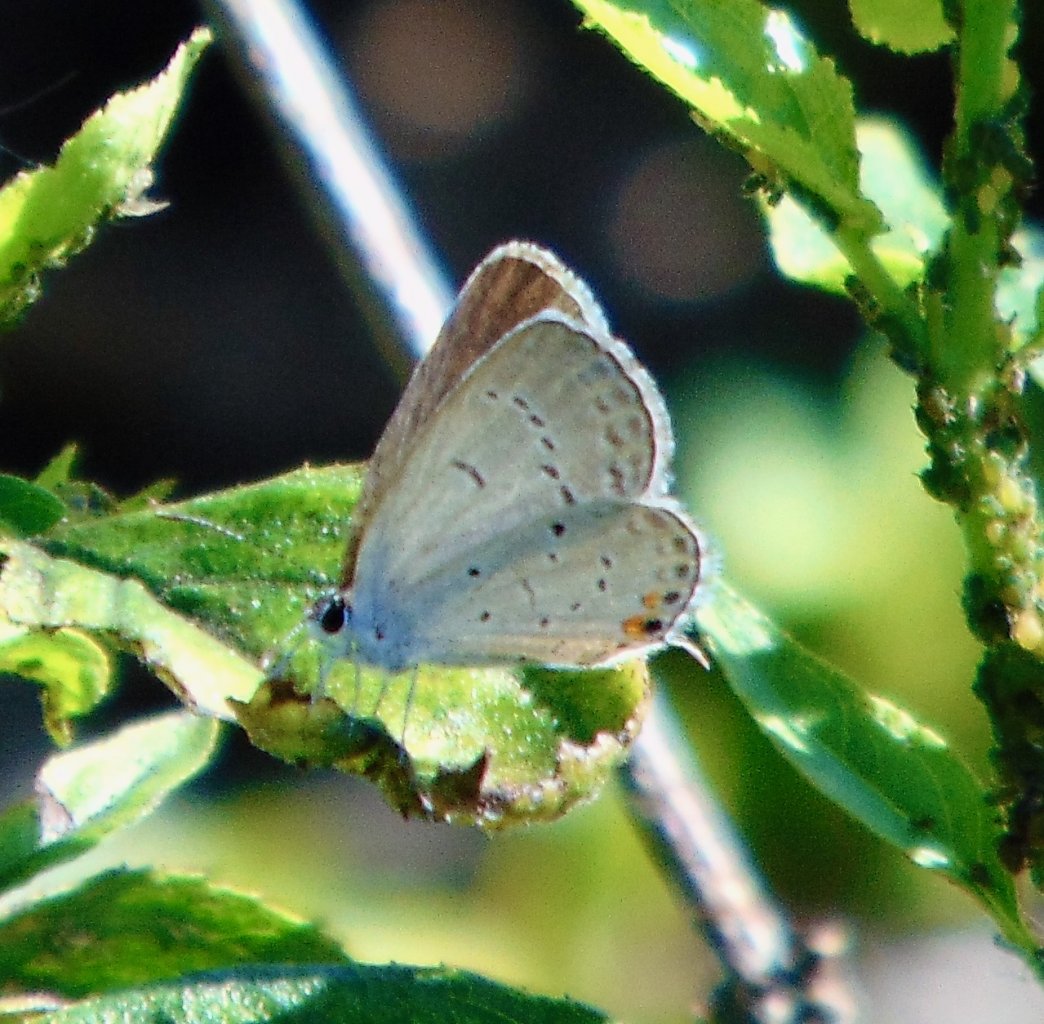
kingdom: Animalia
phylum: Arthropoda
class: Insecta
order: Lepidoptera
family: Lycaenidae
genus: Elkalyce
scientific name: Elkalyce comyntas
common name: Eastern Tailed-Blue
